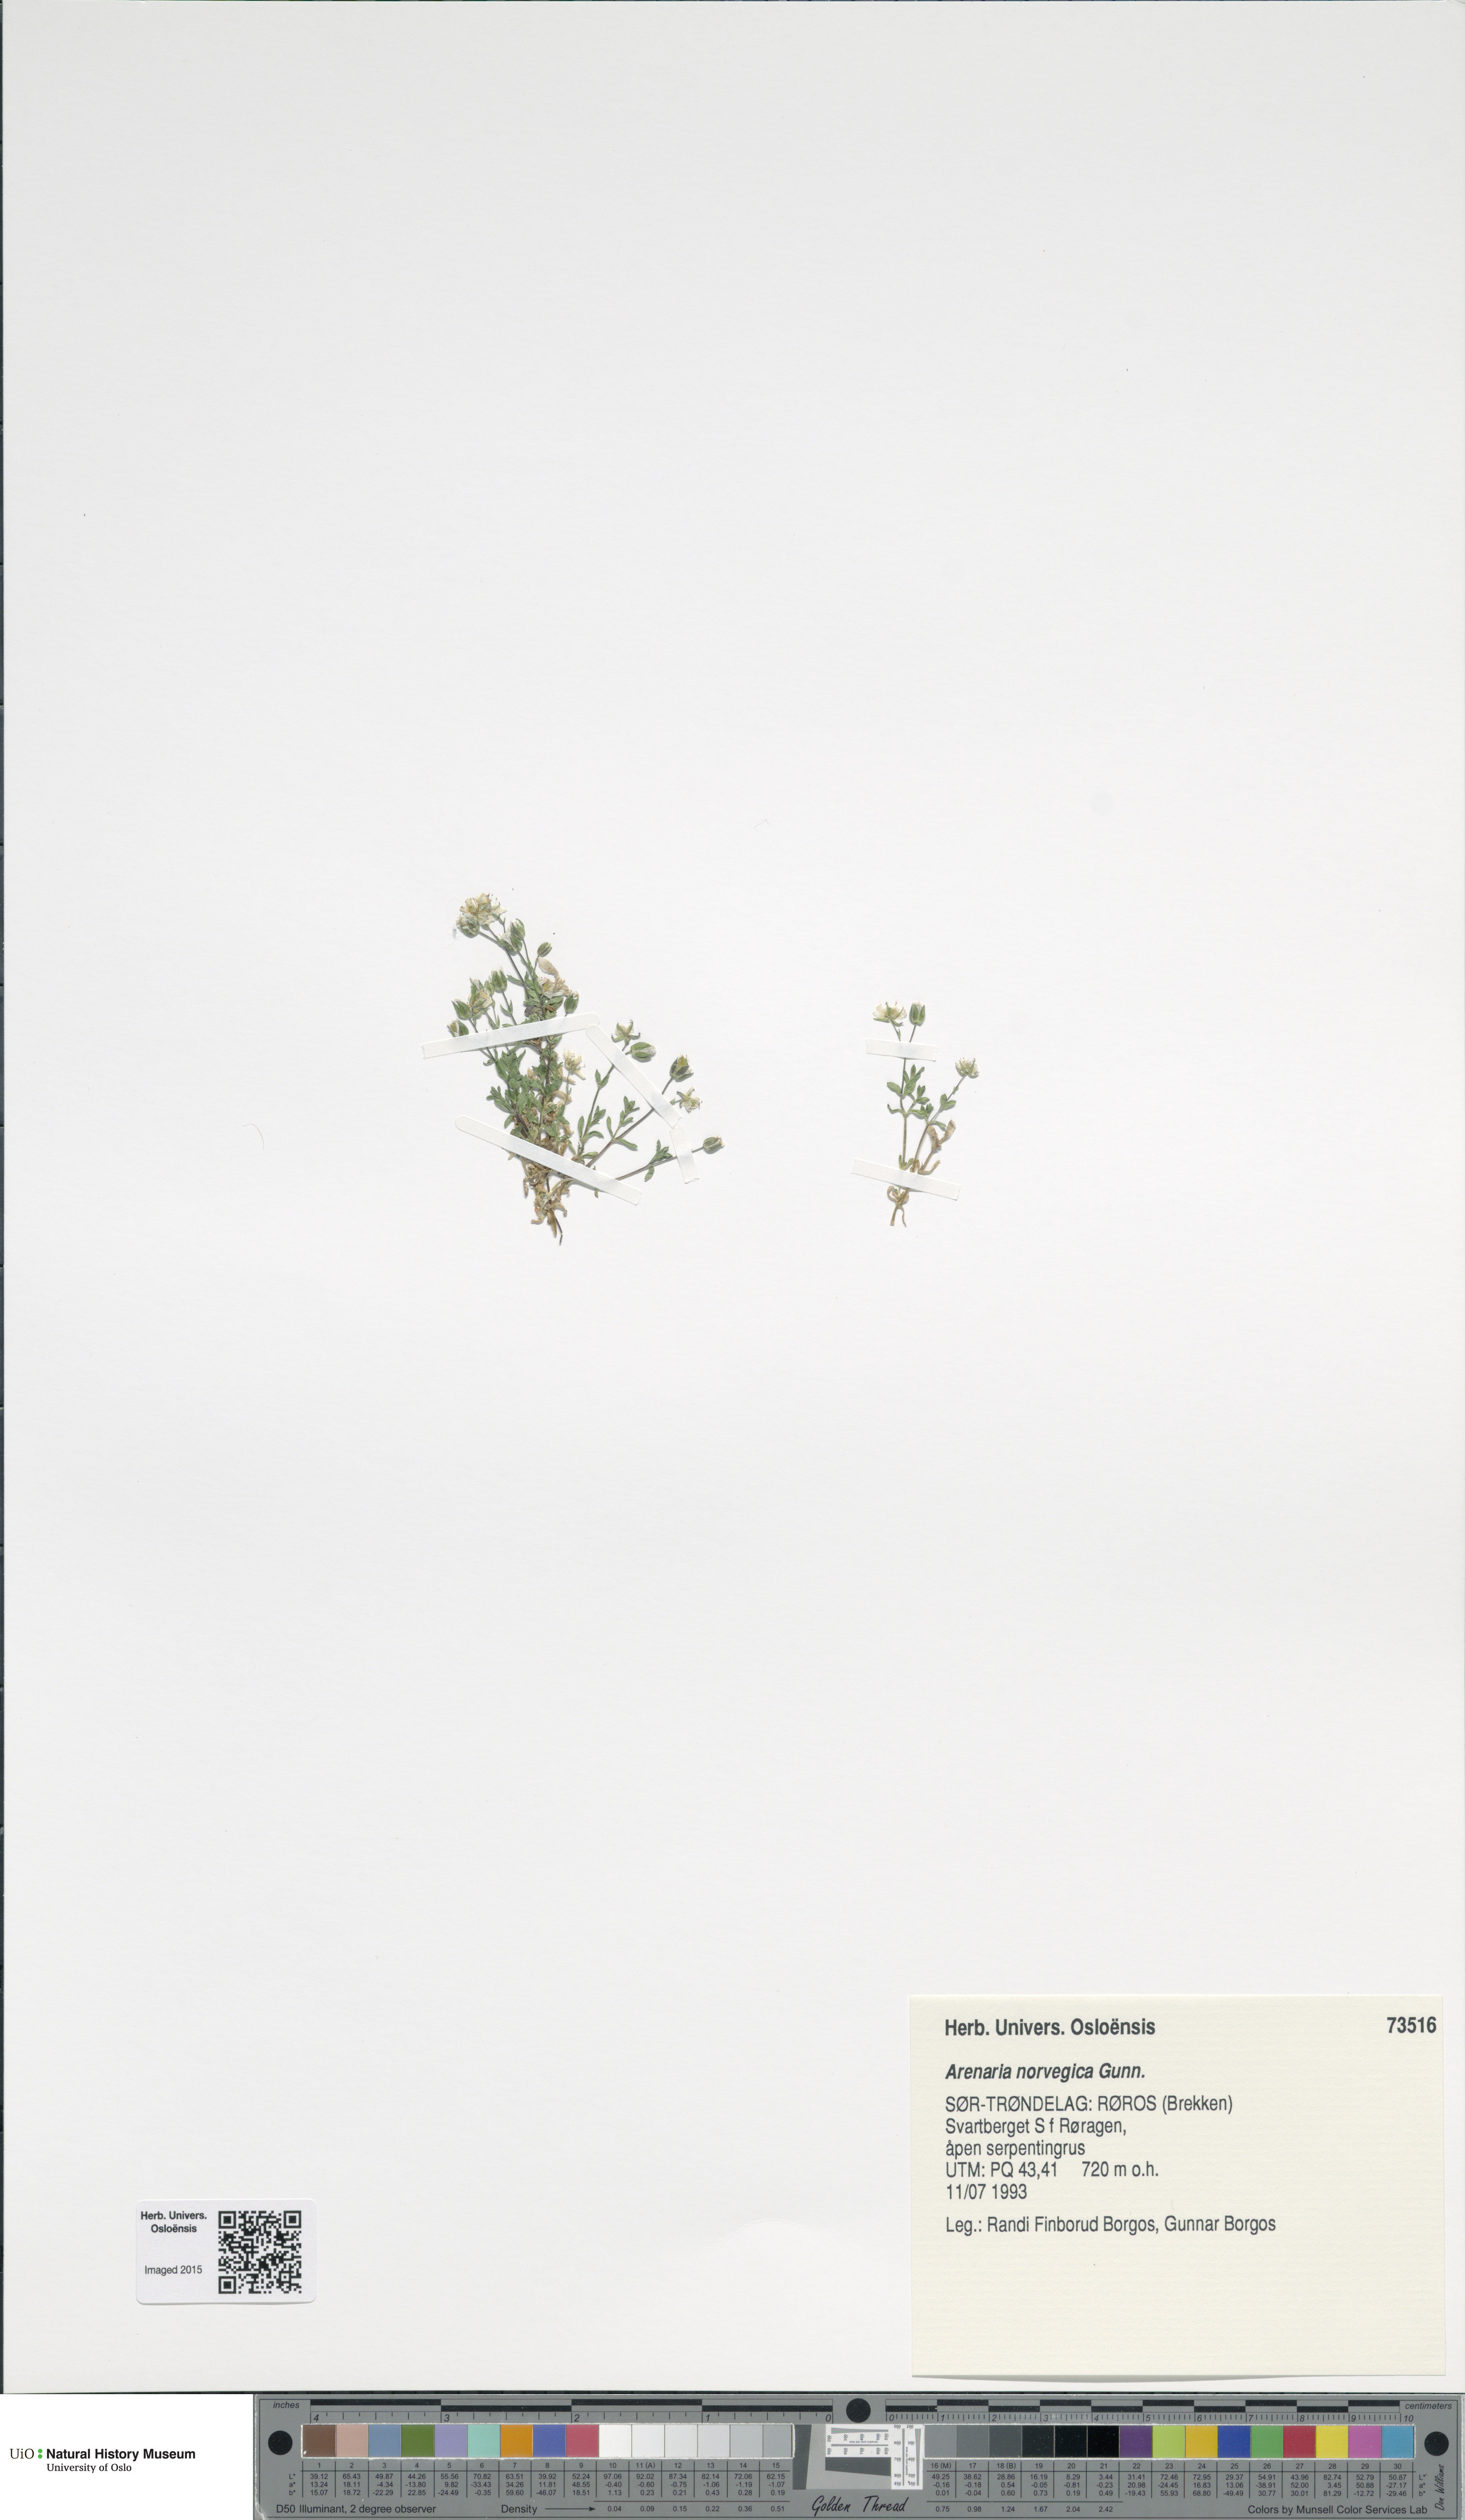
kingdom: Plantae
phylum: Tracheophyta
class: Magnoliopsida
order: Caryophyllales
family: Caryophyllaceae
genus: Arenaria
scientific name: Arenaria norvegica
